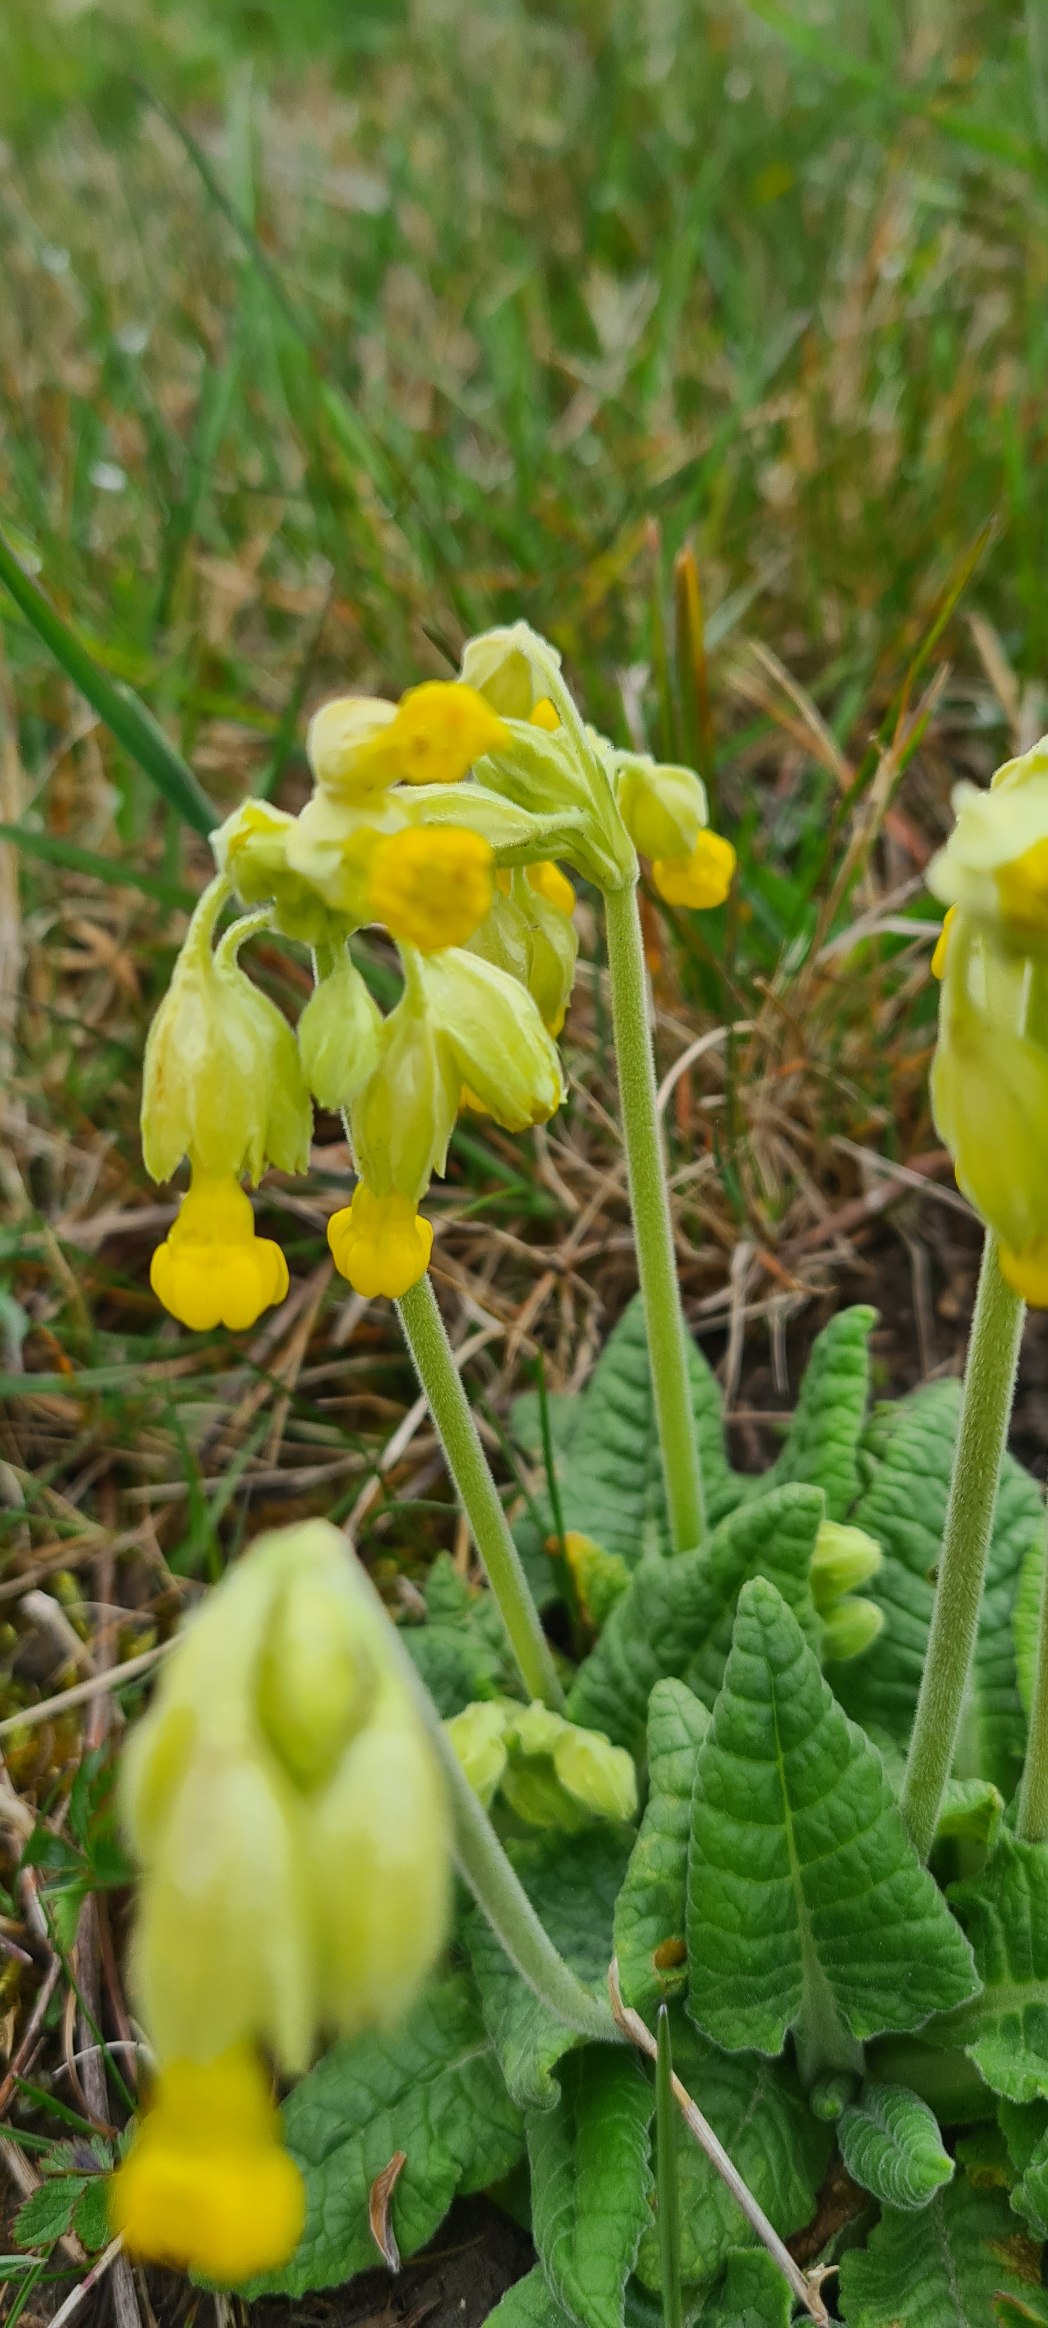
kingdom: Plantae
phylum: Tracheophyta
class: Magnoliopsida
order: Ericales
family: Primulaceae
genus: Primula
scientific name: Primula veris
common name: Hulkravet kodriver
